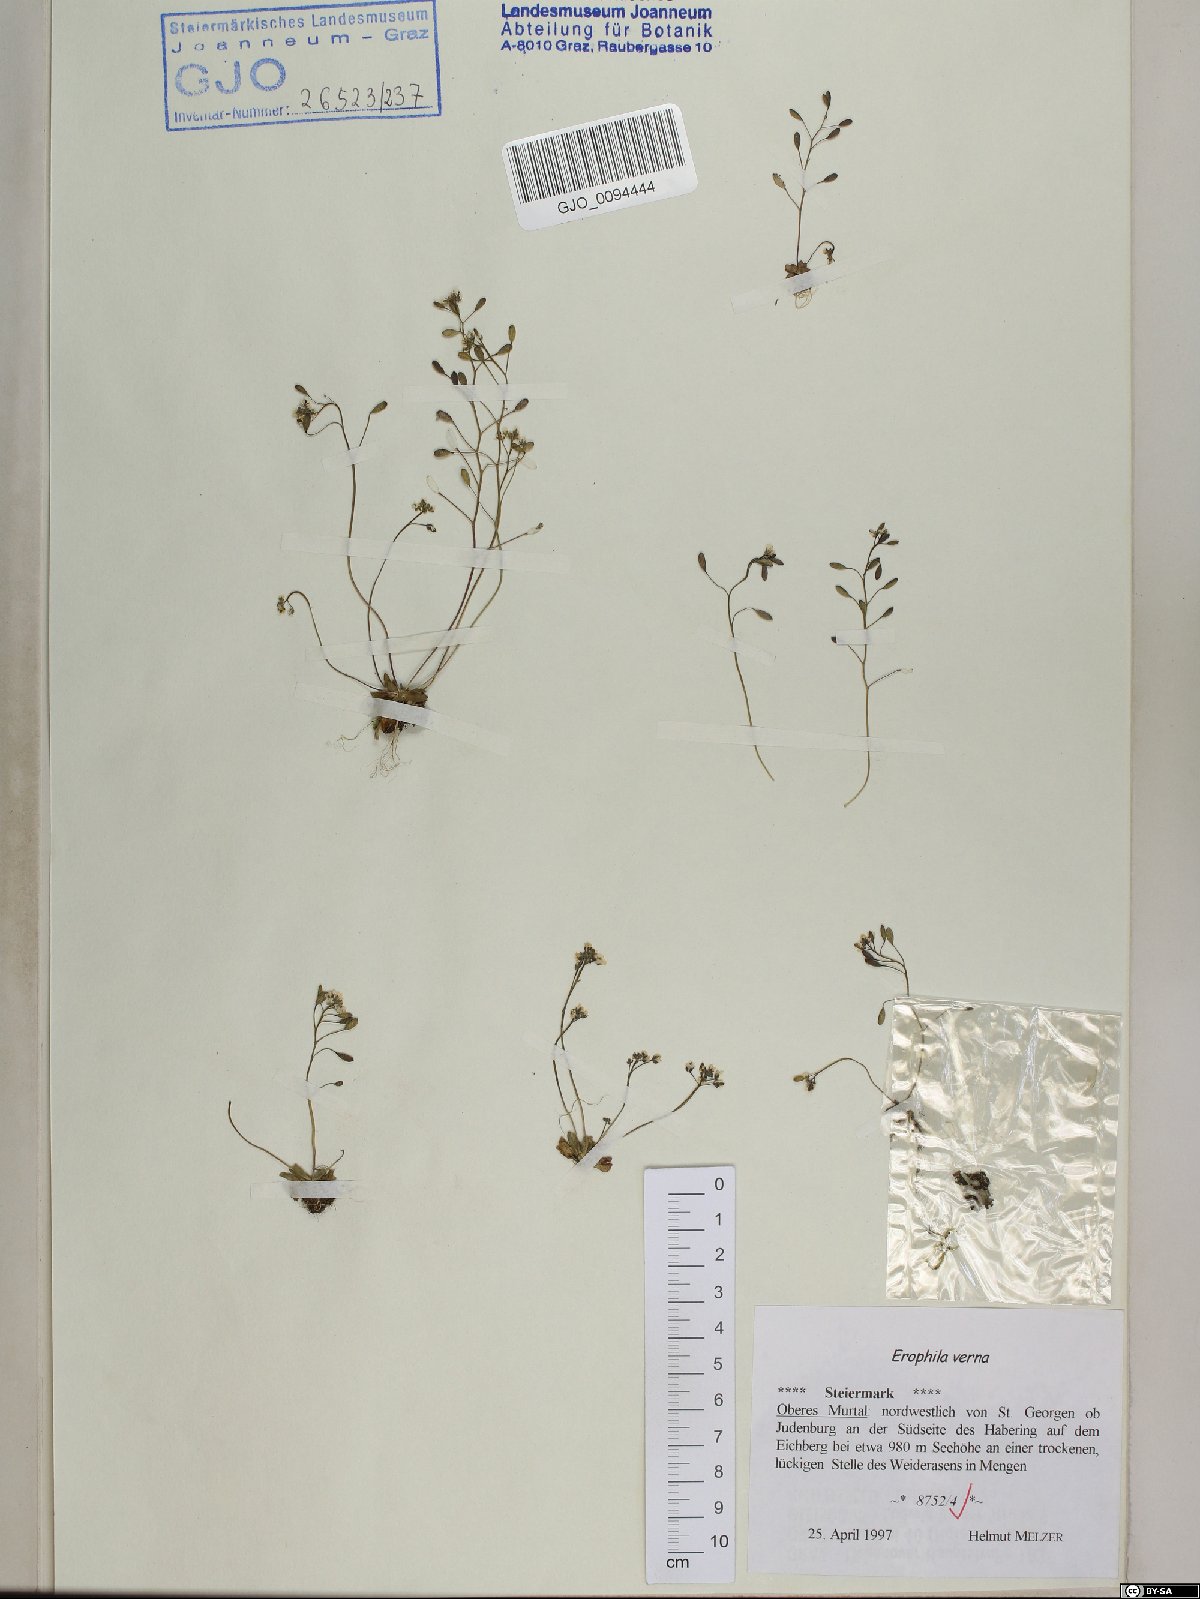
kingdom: Plantae
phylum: Tracheophyta
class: Magnoliopsida
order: Brassicales
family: Brassicaceae
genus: Draba
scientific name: Draba verna
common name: Spring draba
